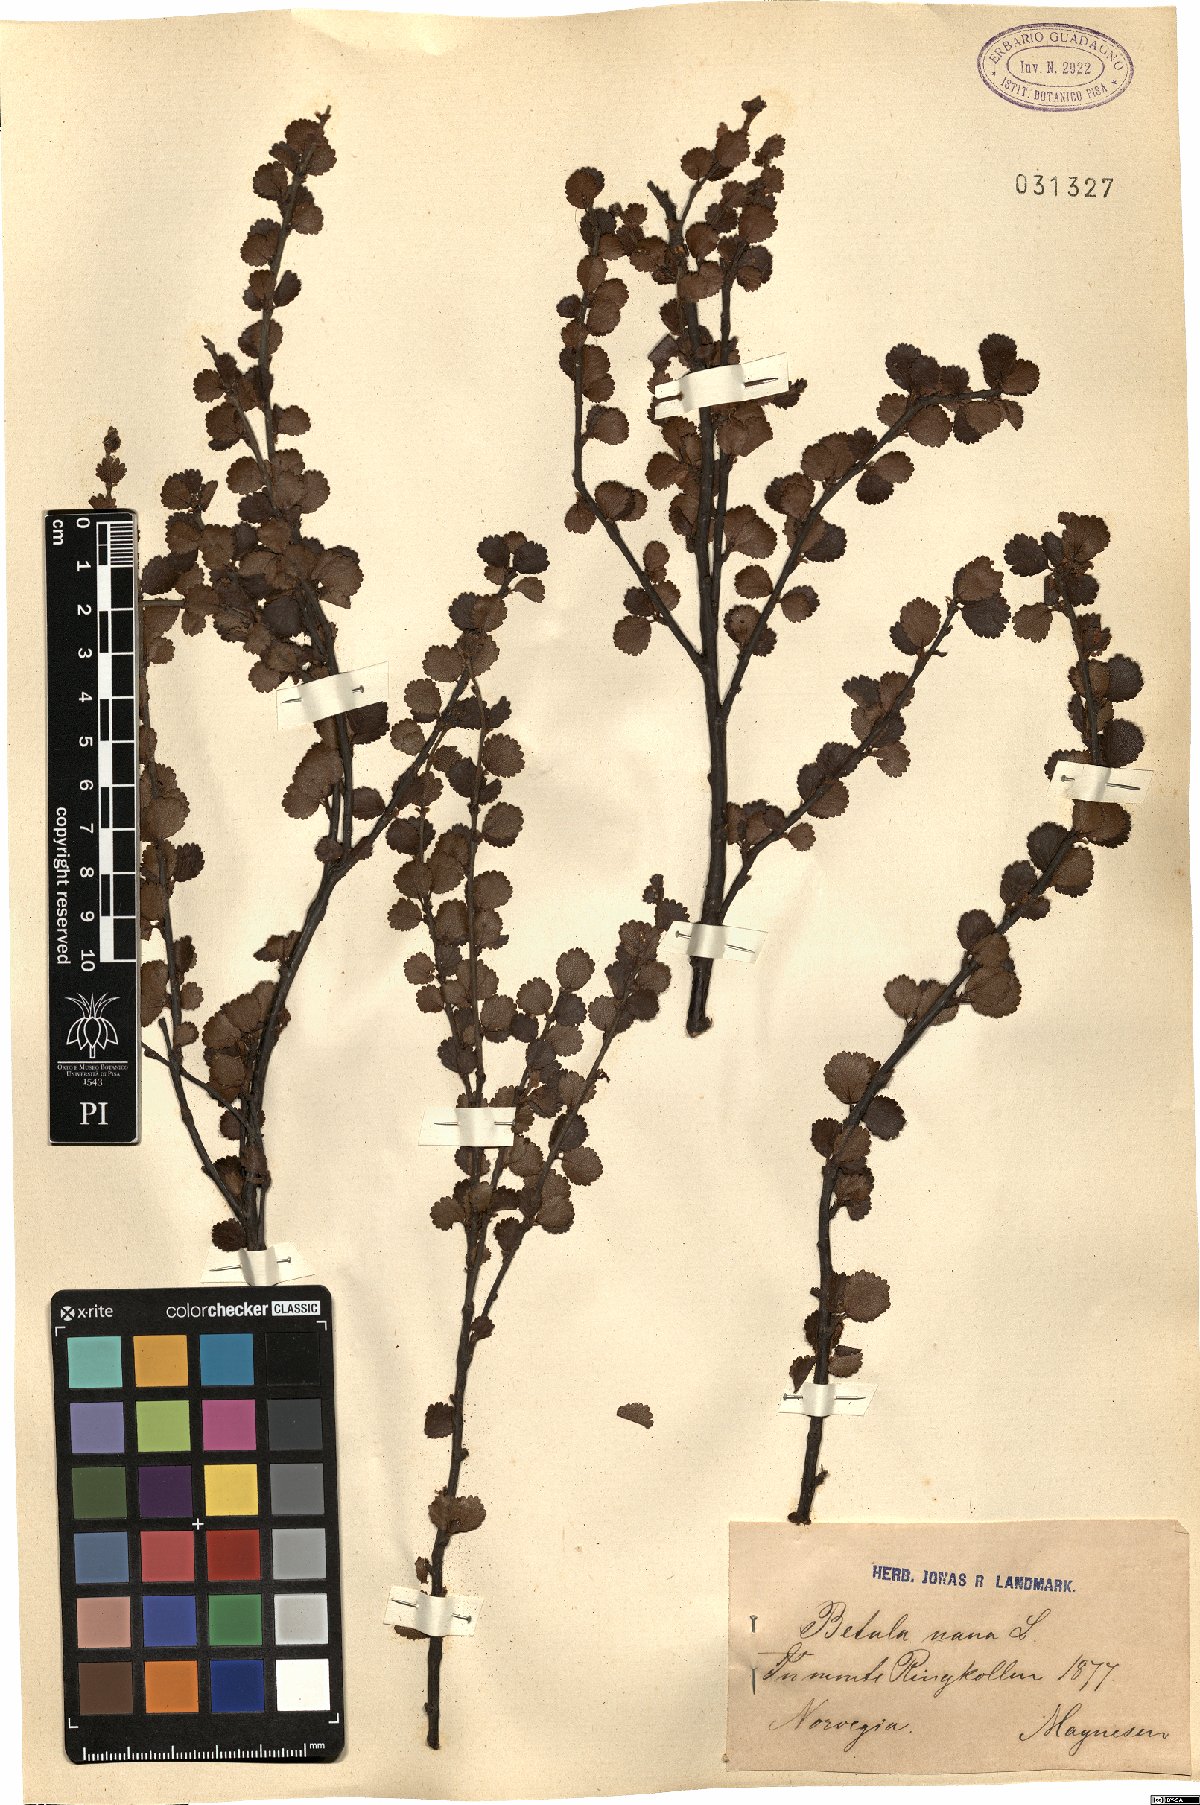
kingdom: Plantae
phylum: Tracheophyta
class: Magnoliopsida
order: Fagales
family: Betulaceae
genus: Betula
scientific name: Betula nana
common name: Arctic dwarf birch
